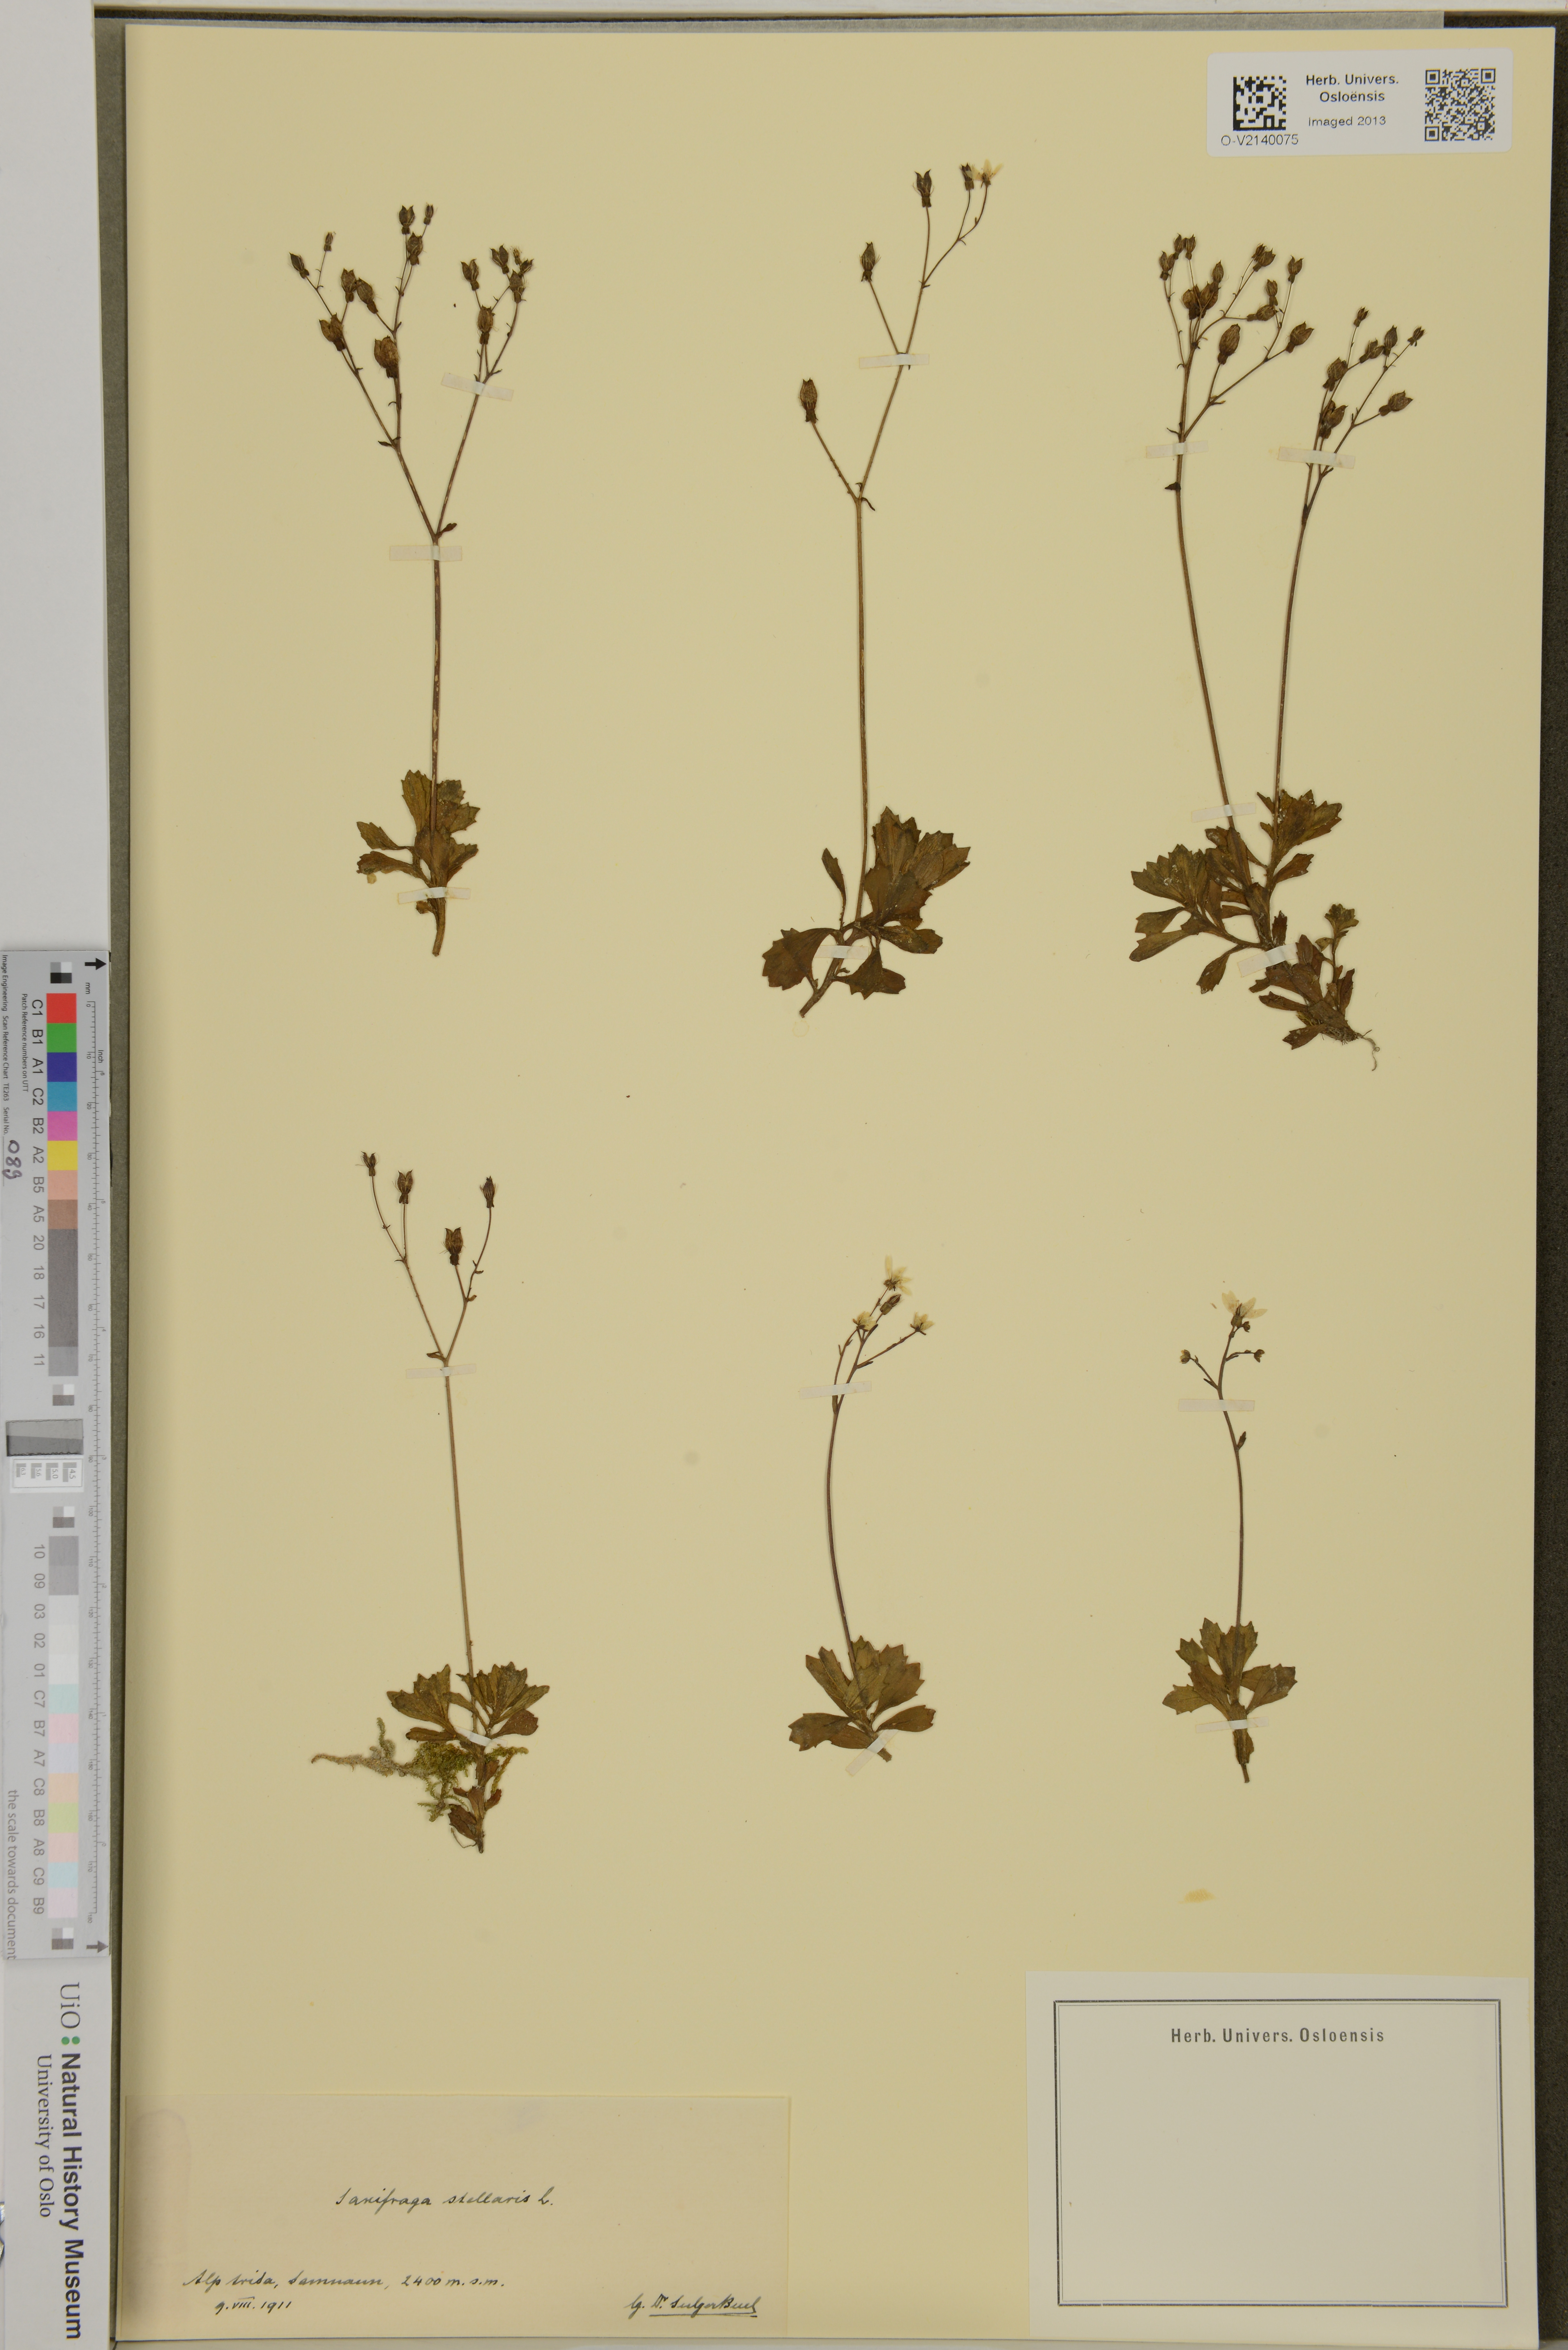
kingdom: Plantae
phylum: Tracheophyta
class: Magnoliopsida
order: Saxifragales
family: Saxifragaceae
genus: Micranthes
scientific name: Micranthes stellaris
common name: Starry saxifrage
